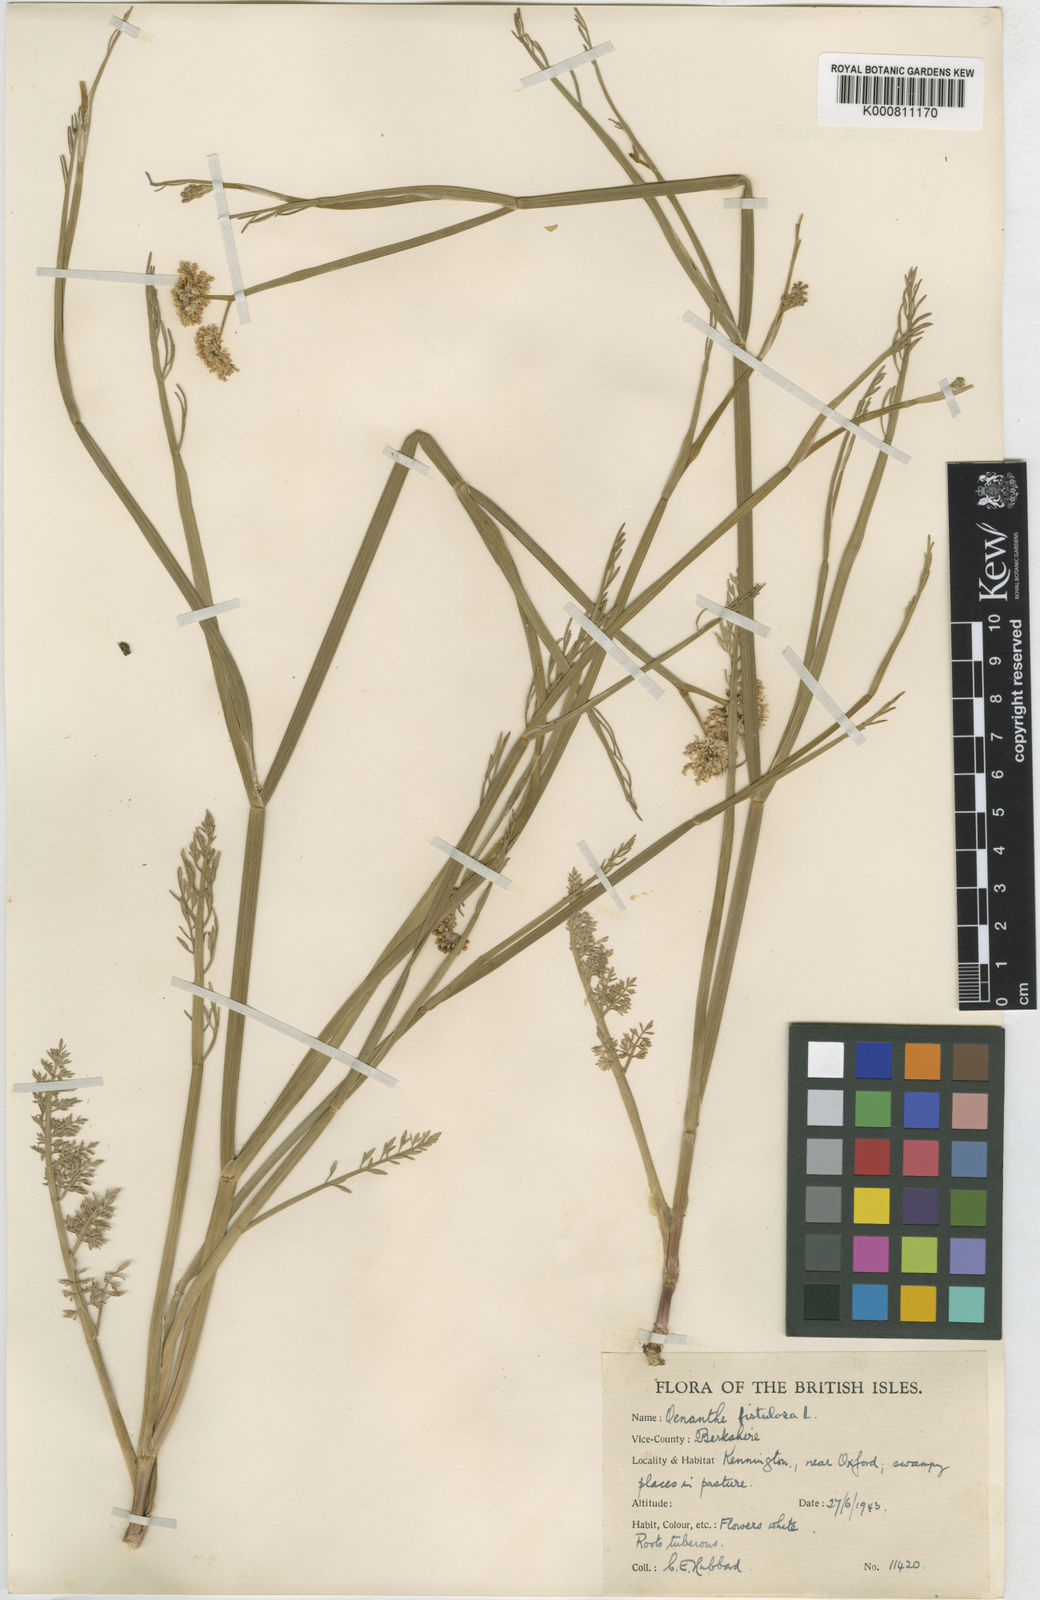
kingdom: Plantae
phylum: Tracheophyta
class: Magnoliopsida
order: Apiales
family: Apiaceae
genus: Oenanthe
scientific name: Oenanthe fistulosa
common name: Tubular water-dropwort
